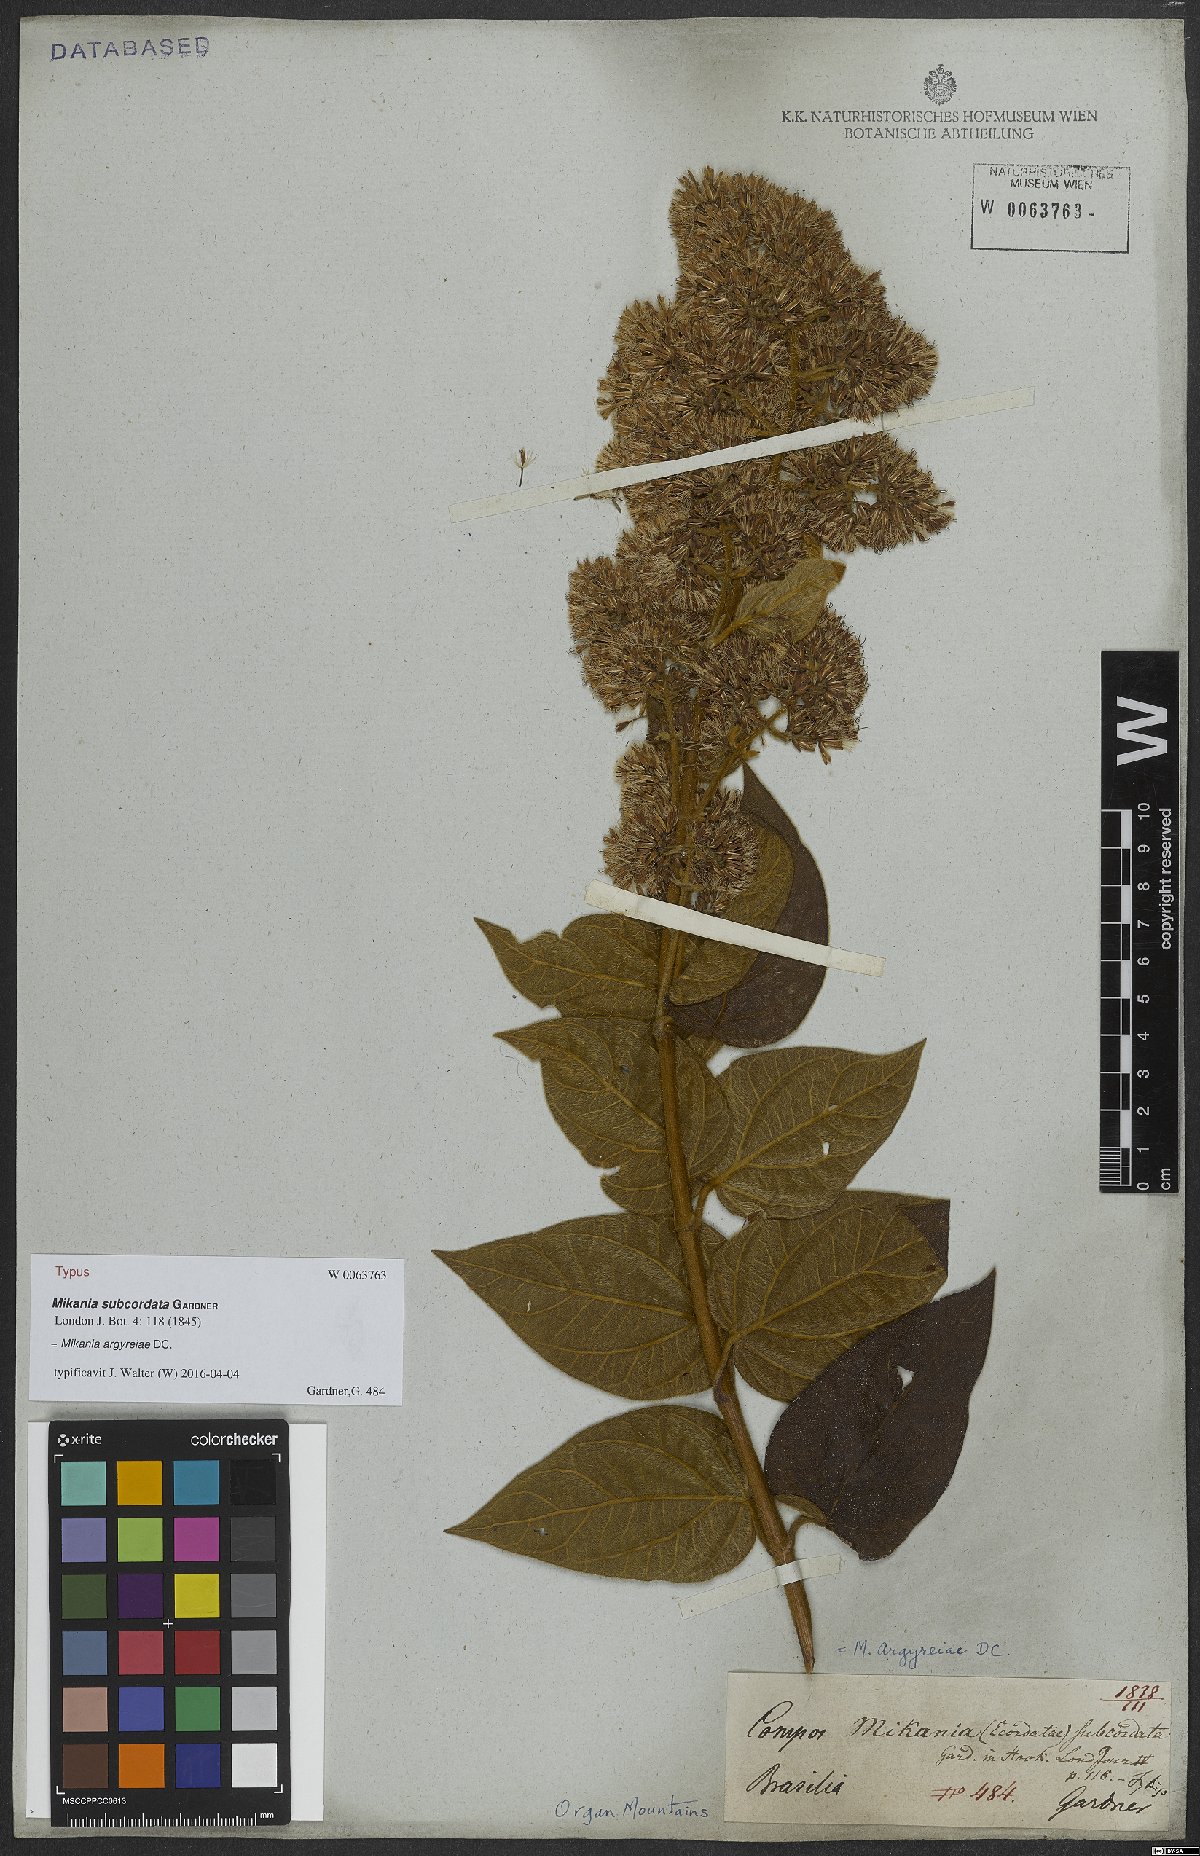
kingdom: Plantae
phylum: Tracheophyta
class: Magnoliopsida
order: Asterales
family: Asteraceae
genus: Mikania
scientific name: Mikania argyreiae
